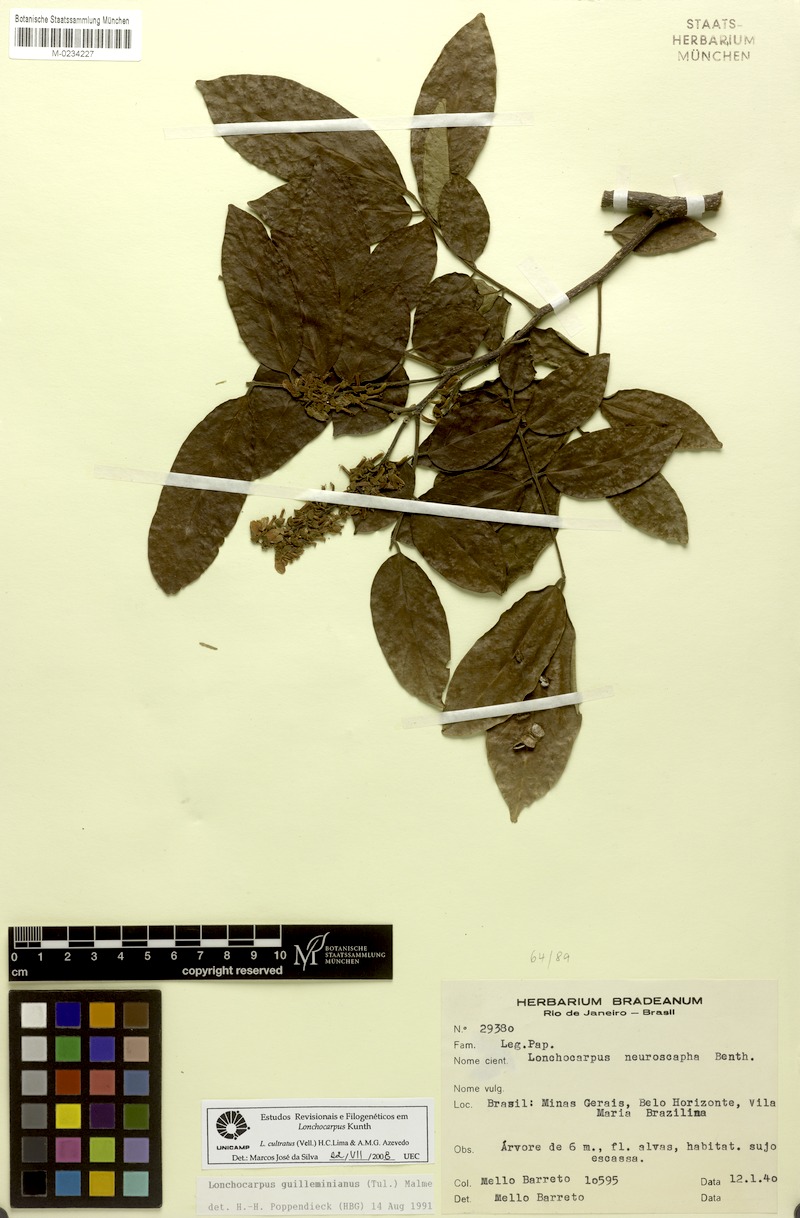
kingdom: Plantae
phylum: Tracheophyta
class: Magnoliopsida
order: Fabales
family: Fabaceae
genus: Lonchocarpus
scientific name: Lonchocarpus cultratus
